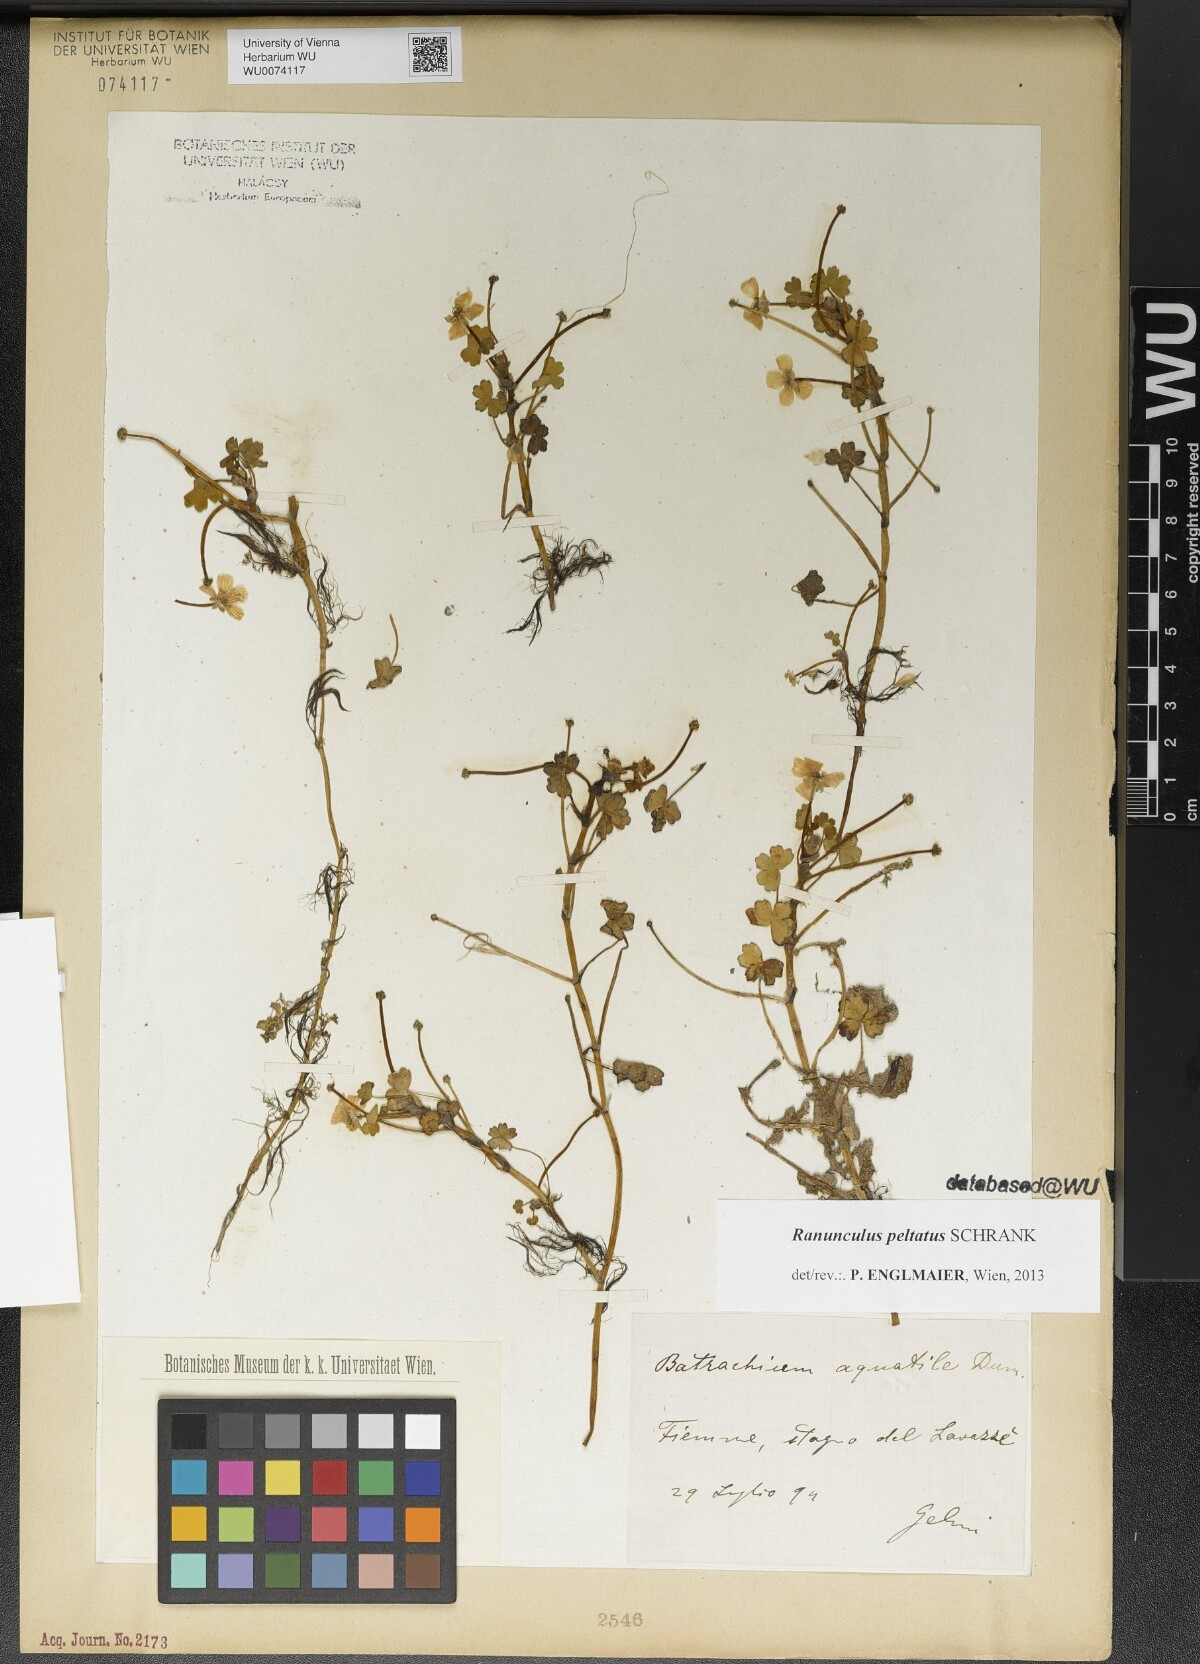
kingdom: Plantae
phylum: Tracheophyta
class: Magnoliopsida
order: Ranunculales
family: Ranunculaceae
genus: Ranunculus
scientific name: Ranunculus peltatus
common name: Pond water-crowfoot
